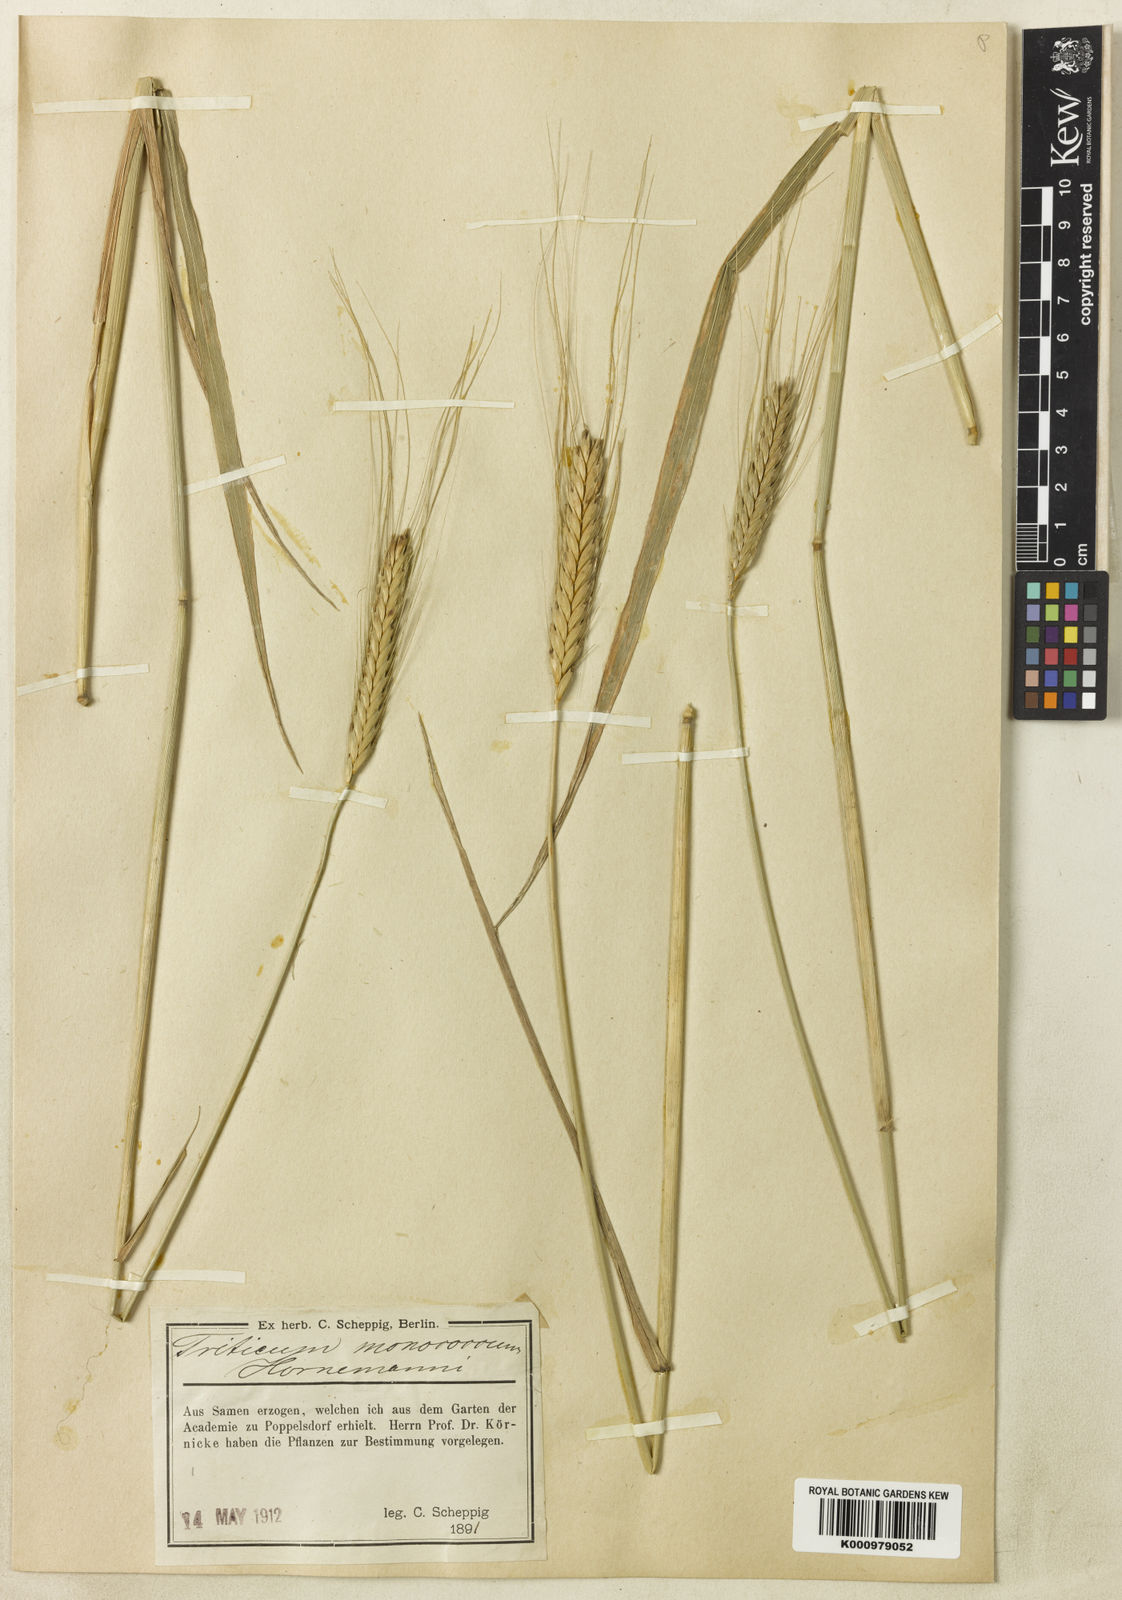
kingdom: Plantae
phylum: Tracheophyta
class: Liliopsida
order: Poales
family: Poaceae
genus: Triticum
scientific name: Triticum monococcum
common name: Einkorn
